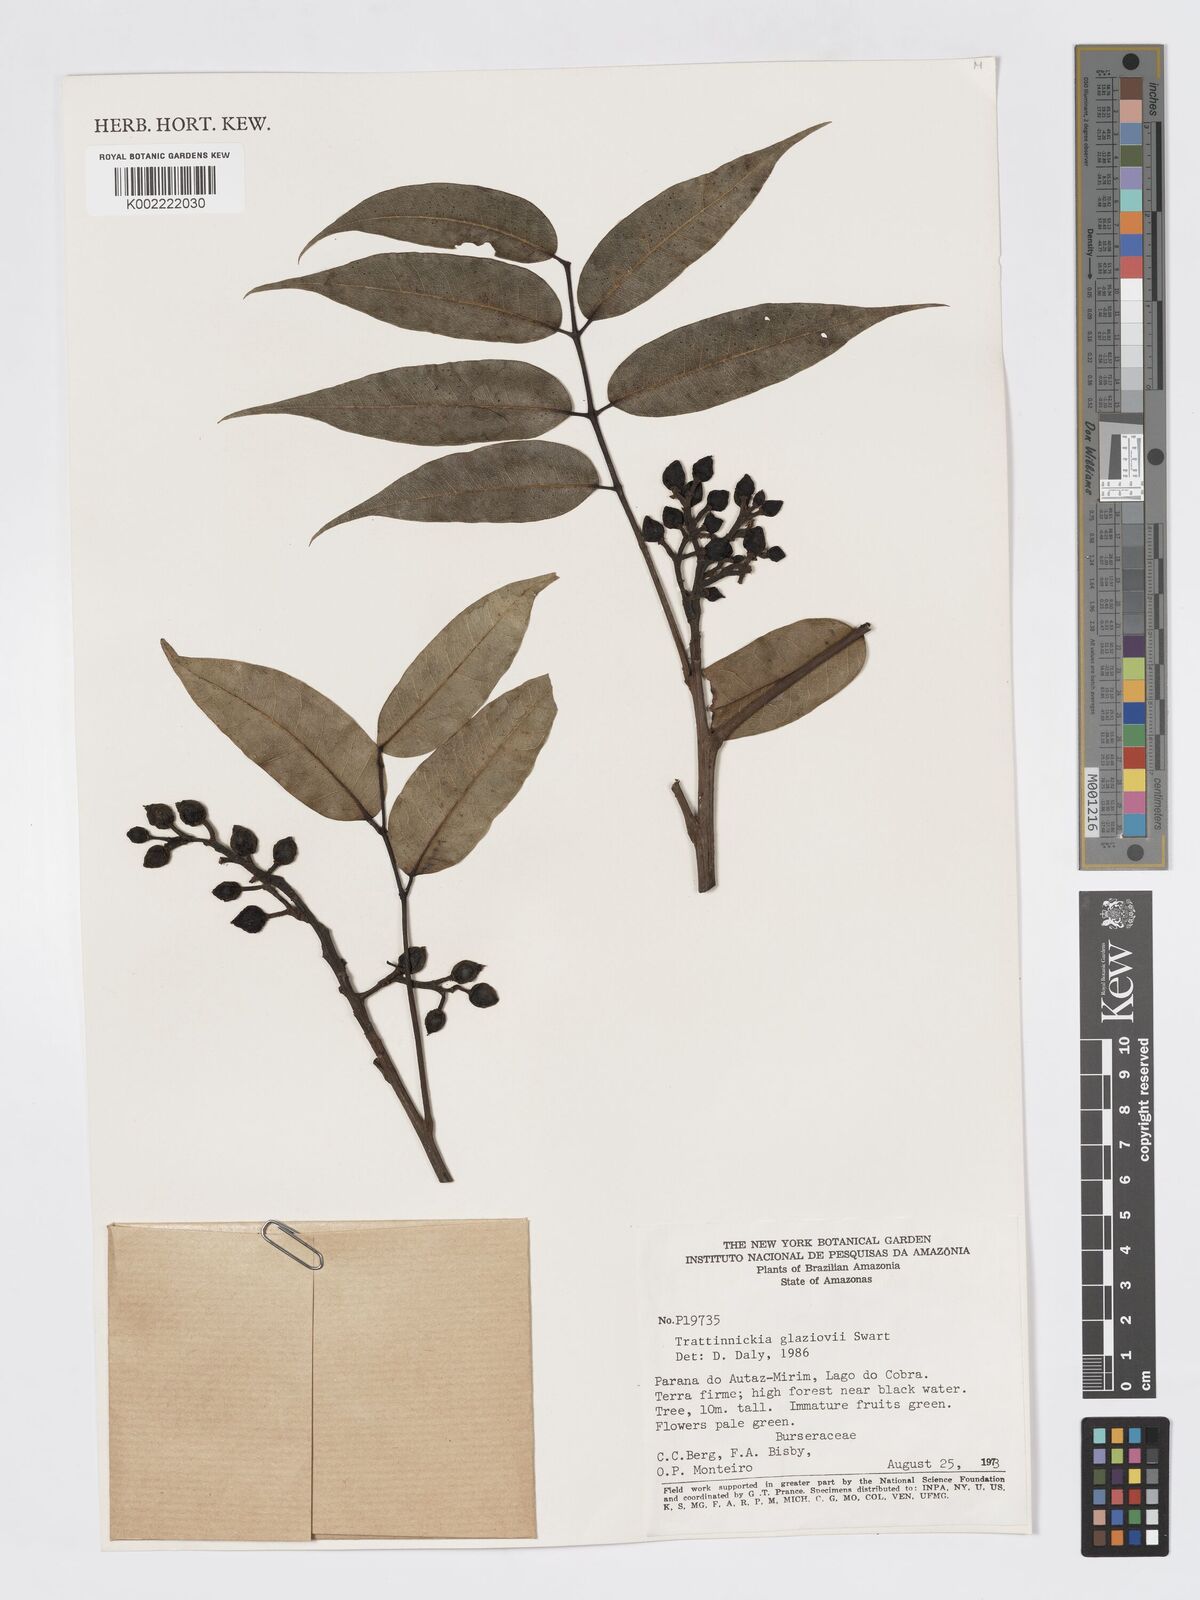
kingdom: Plantae
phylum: Tracheophyta
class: Magnoliopsida
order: Sapindales
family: Burseraceae
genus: Trattinnickia
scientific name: Trattinnickia glaziovii
